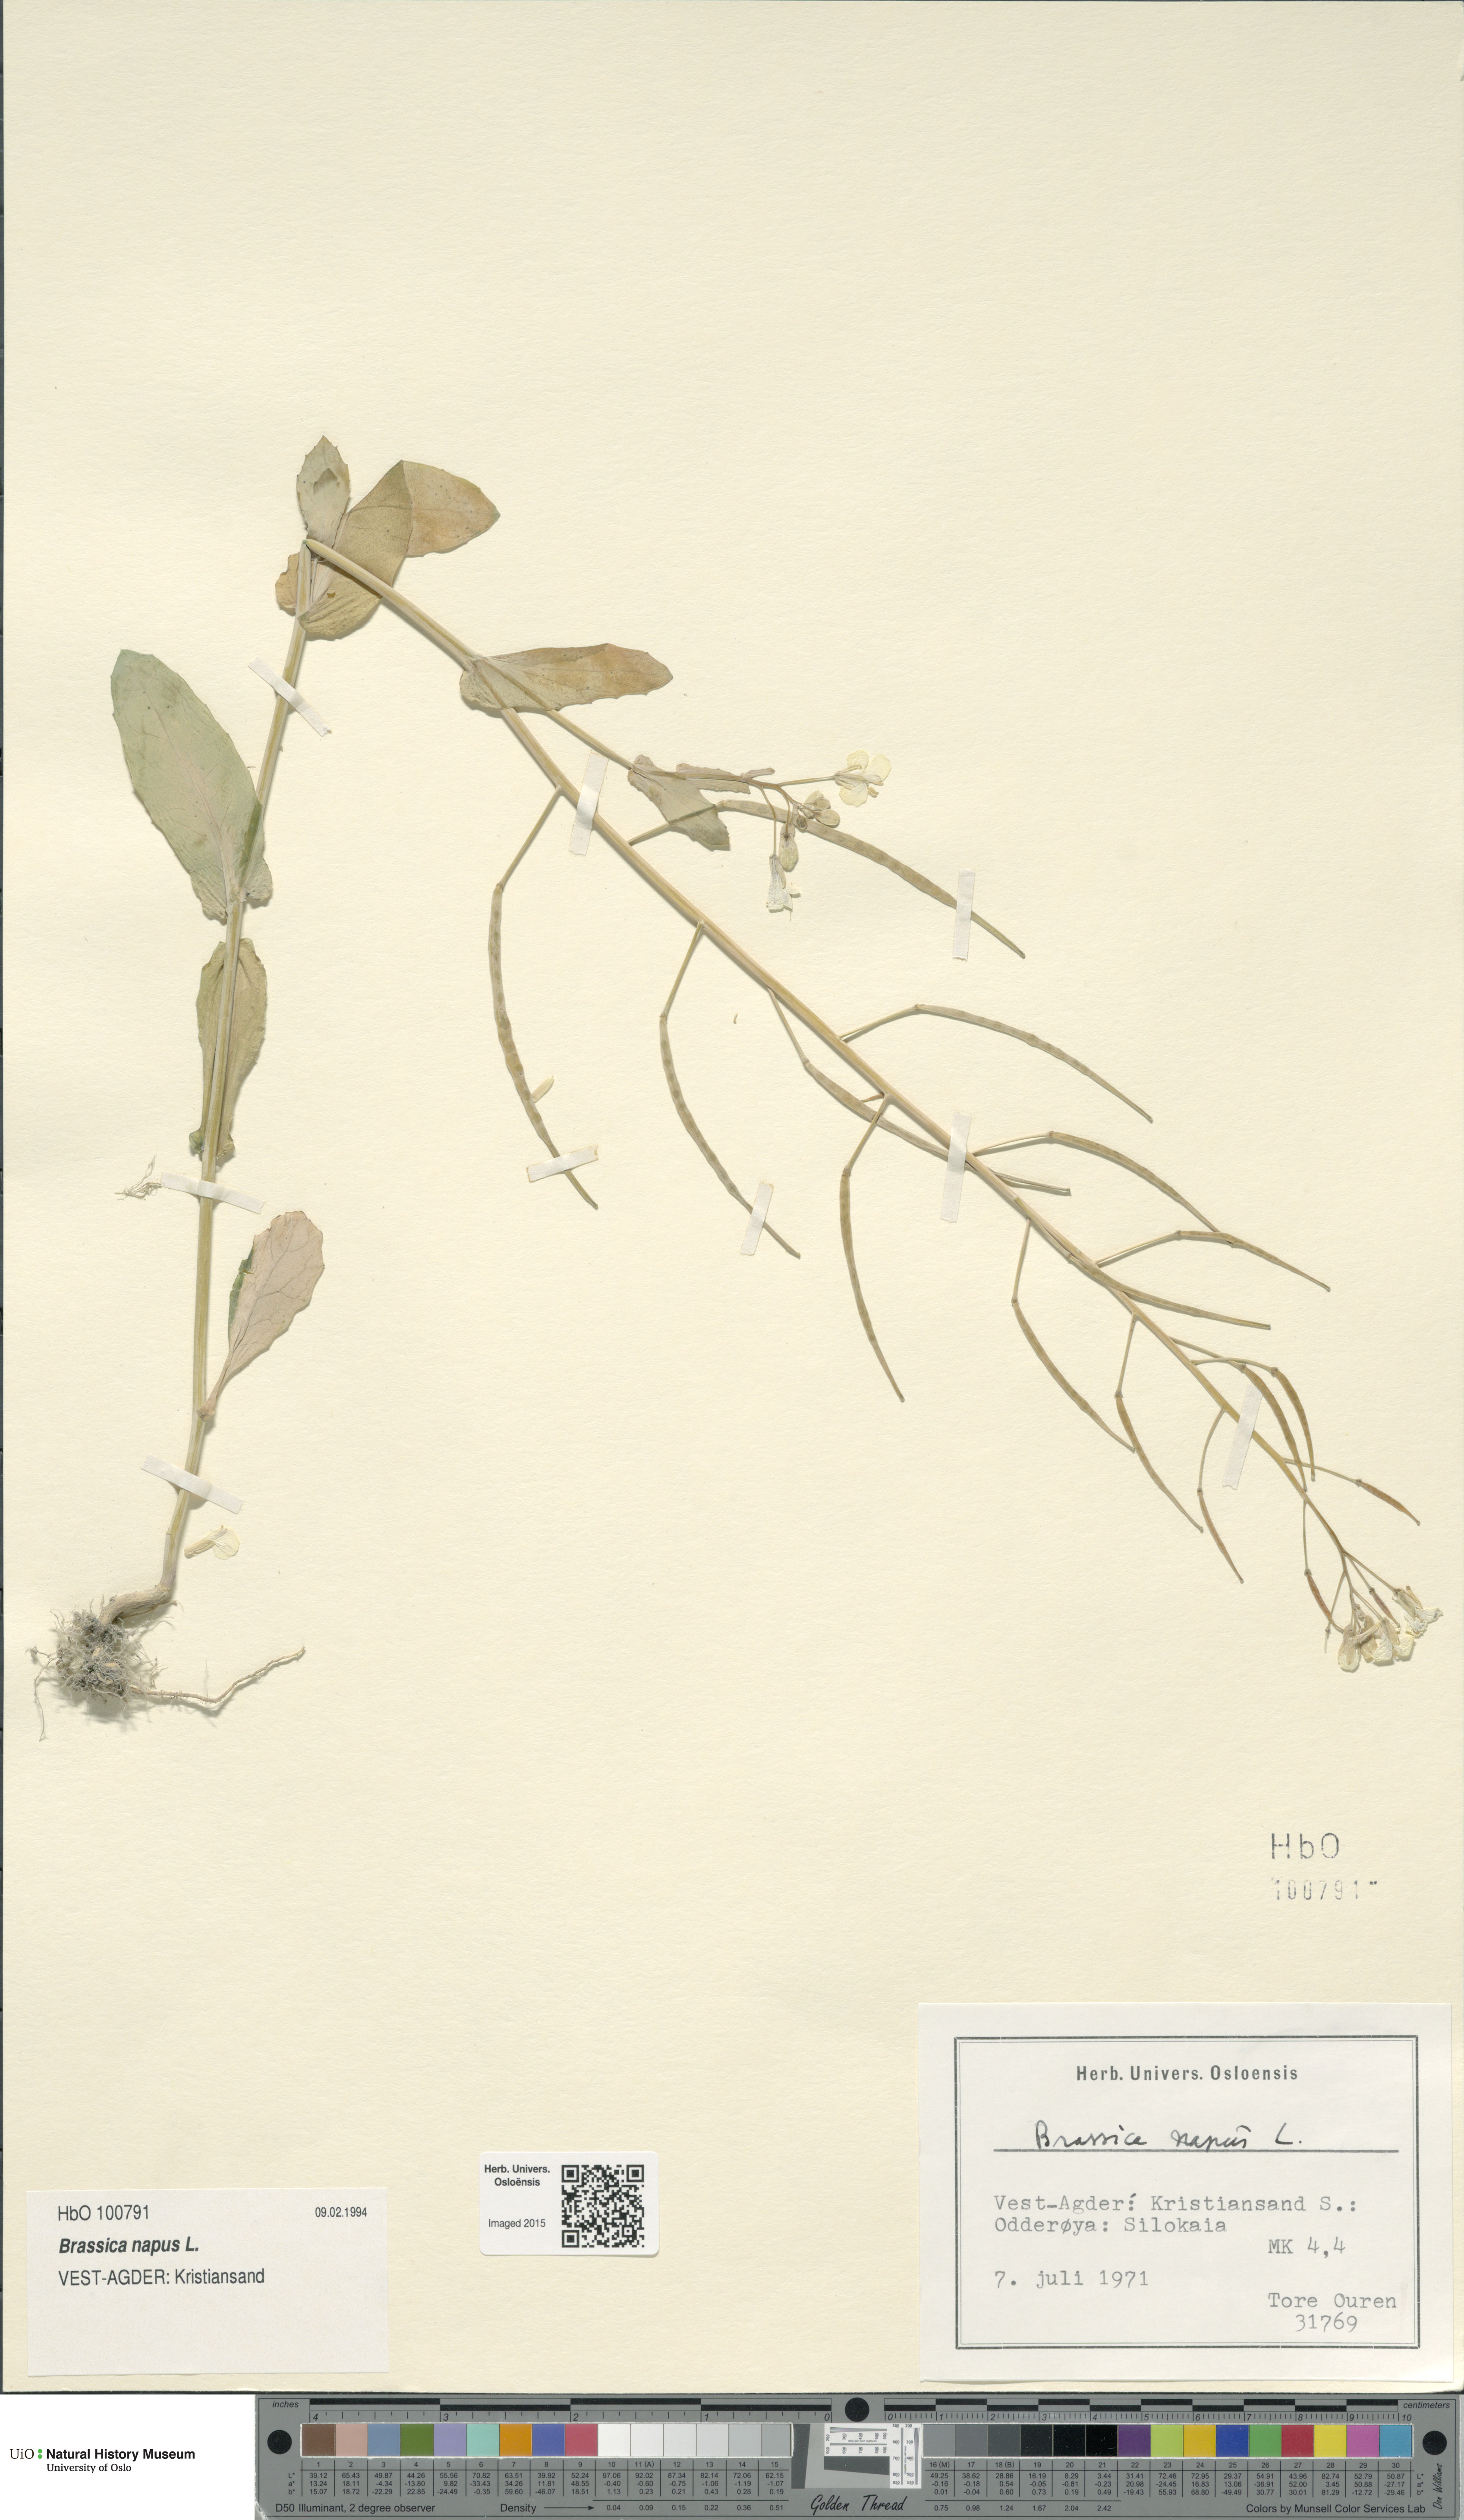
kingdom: Plantae
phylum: Tracheophyta
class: Magnoliopsida
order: Brassicales
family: Brassicaceae
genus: Brassica
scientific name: Brassica napus
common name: Rape
